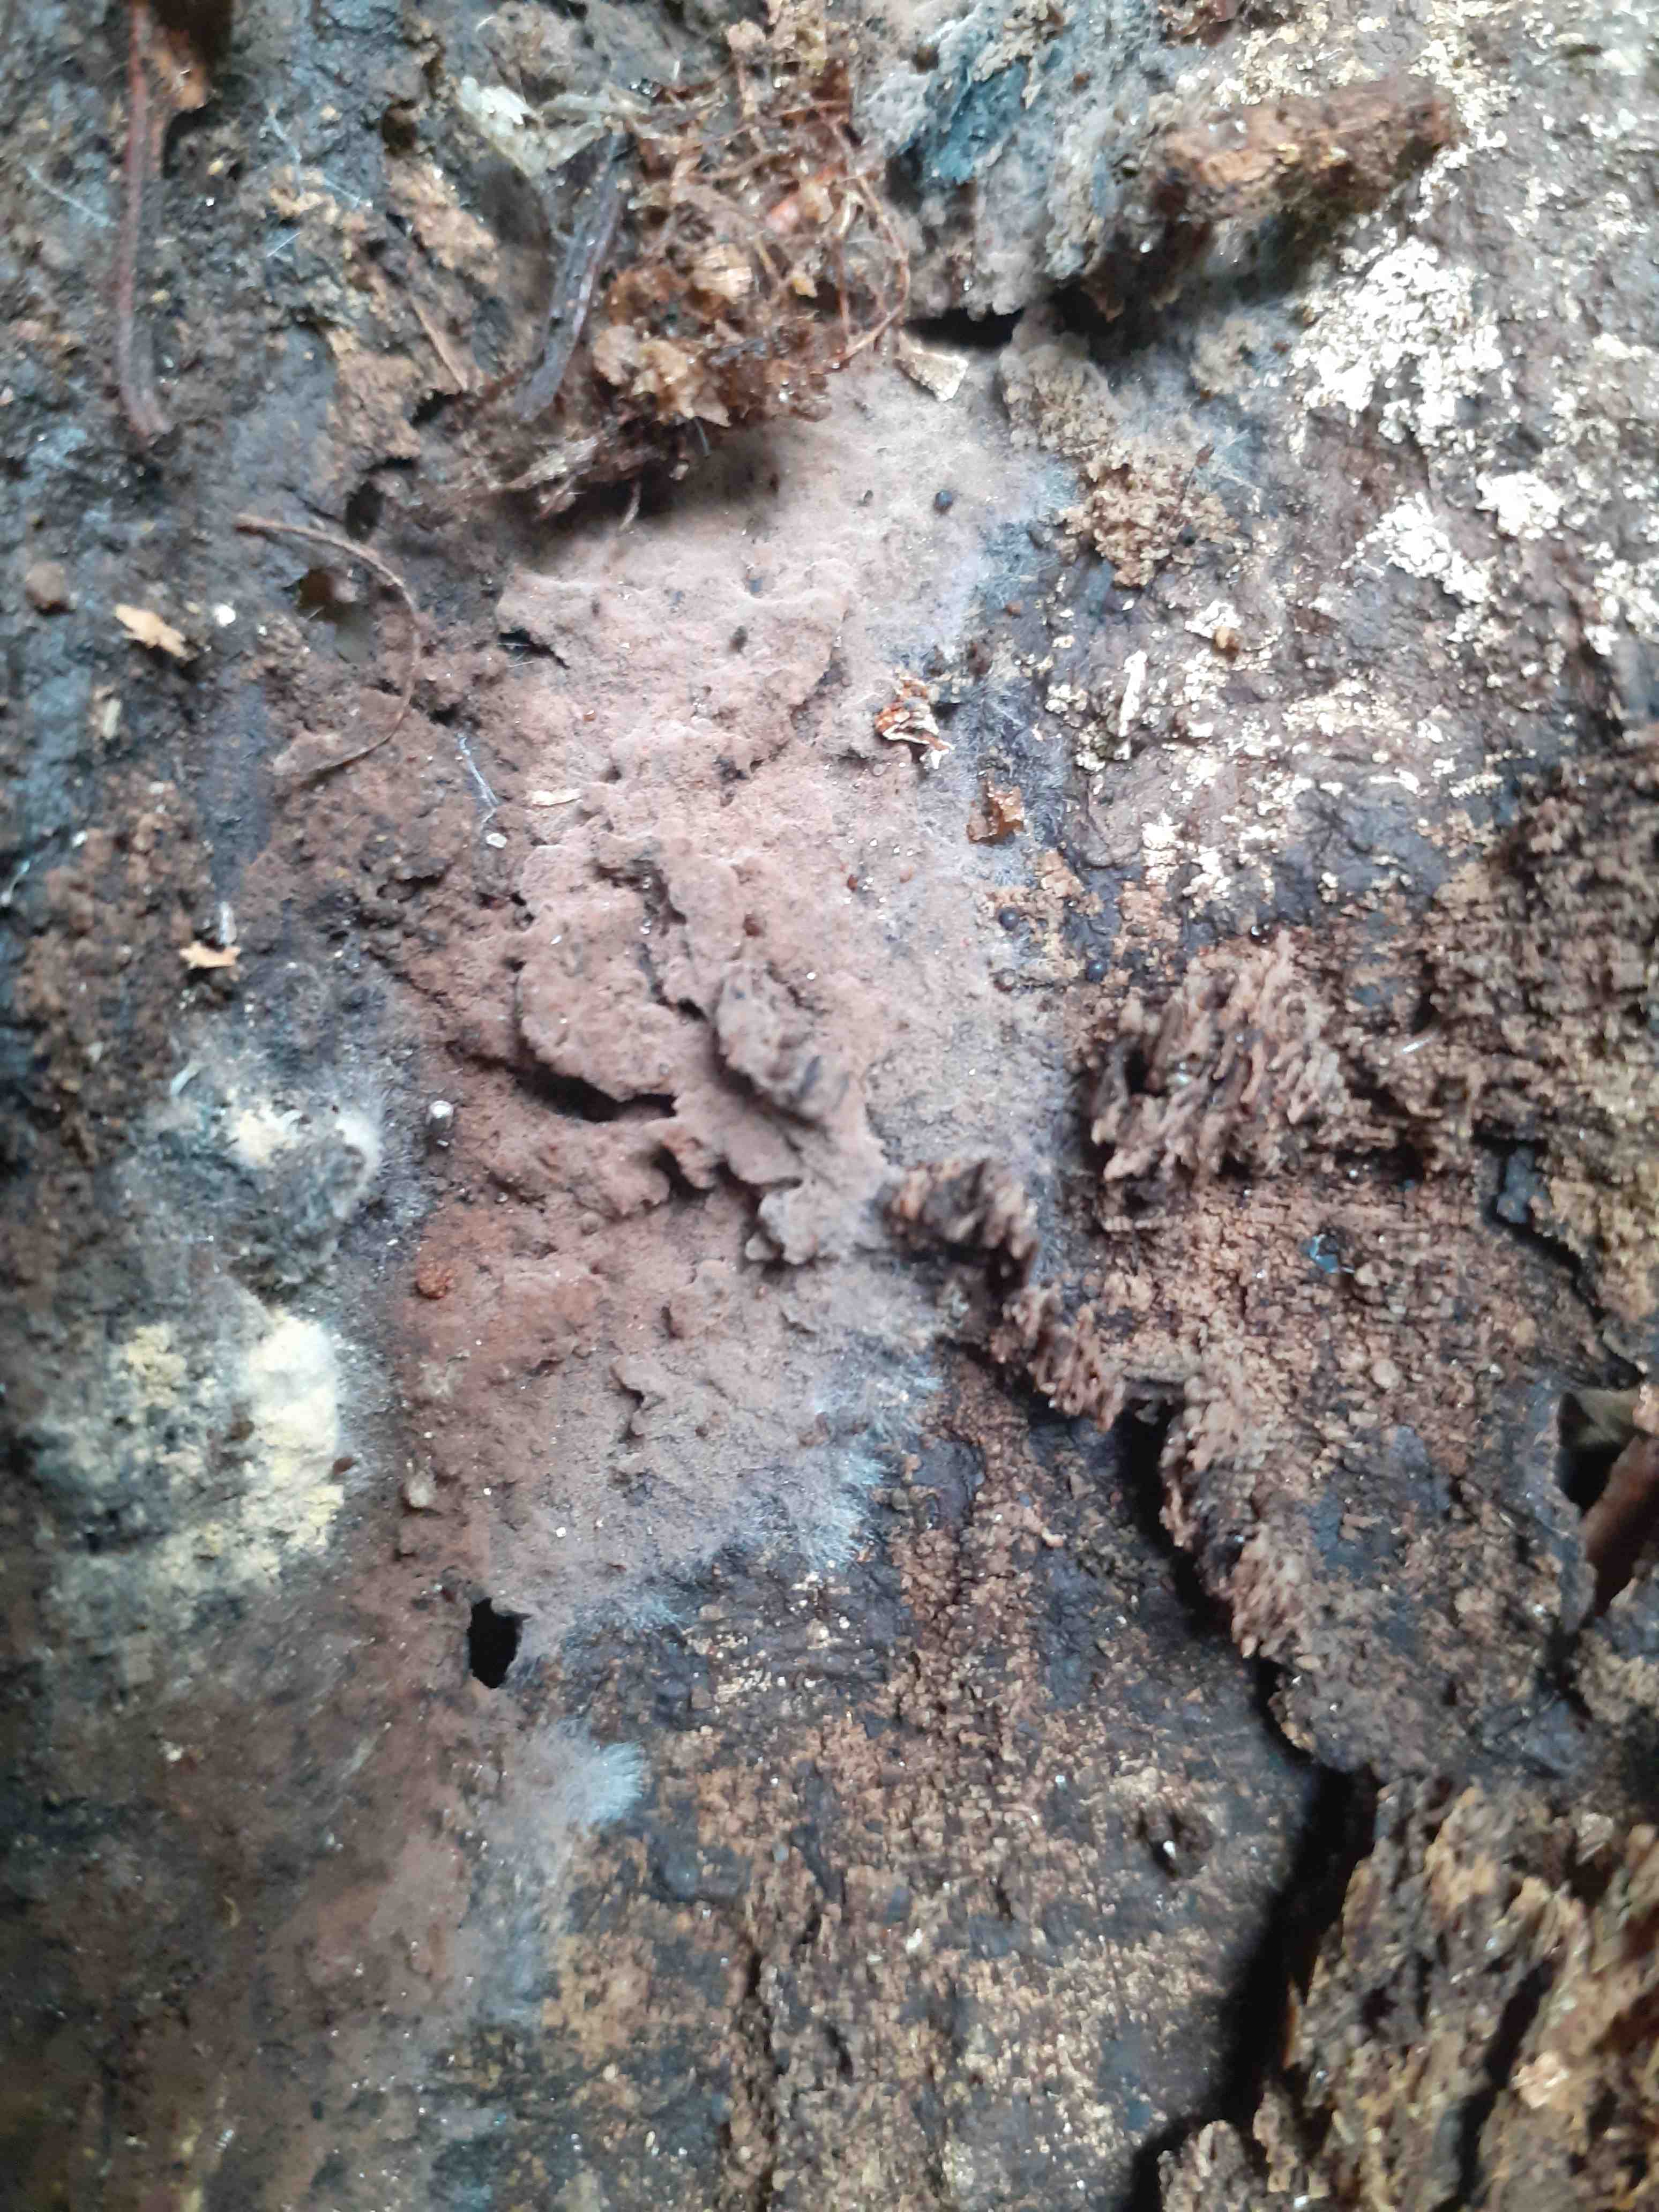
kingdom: Fungi
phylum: Basidiomycota
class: Agaricomycetes
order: Thelephorales
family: Thelephoraceae
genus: Tomentella
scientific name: Tomentella
